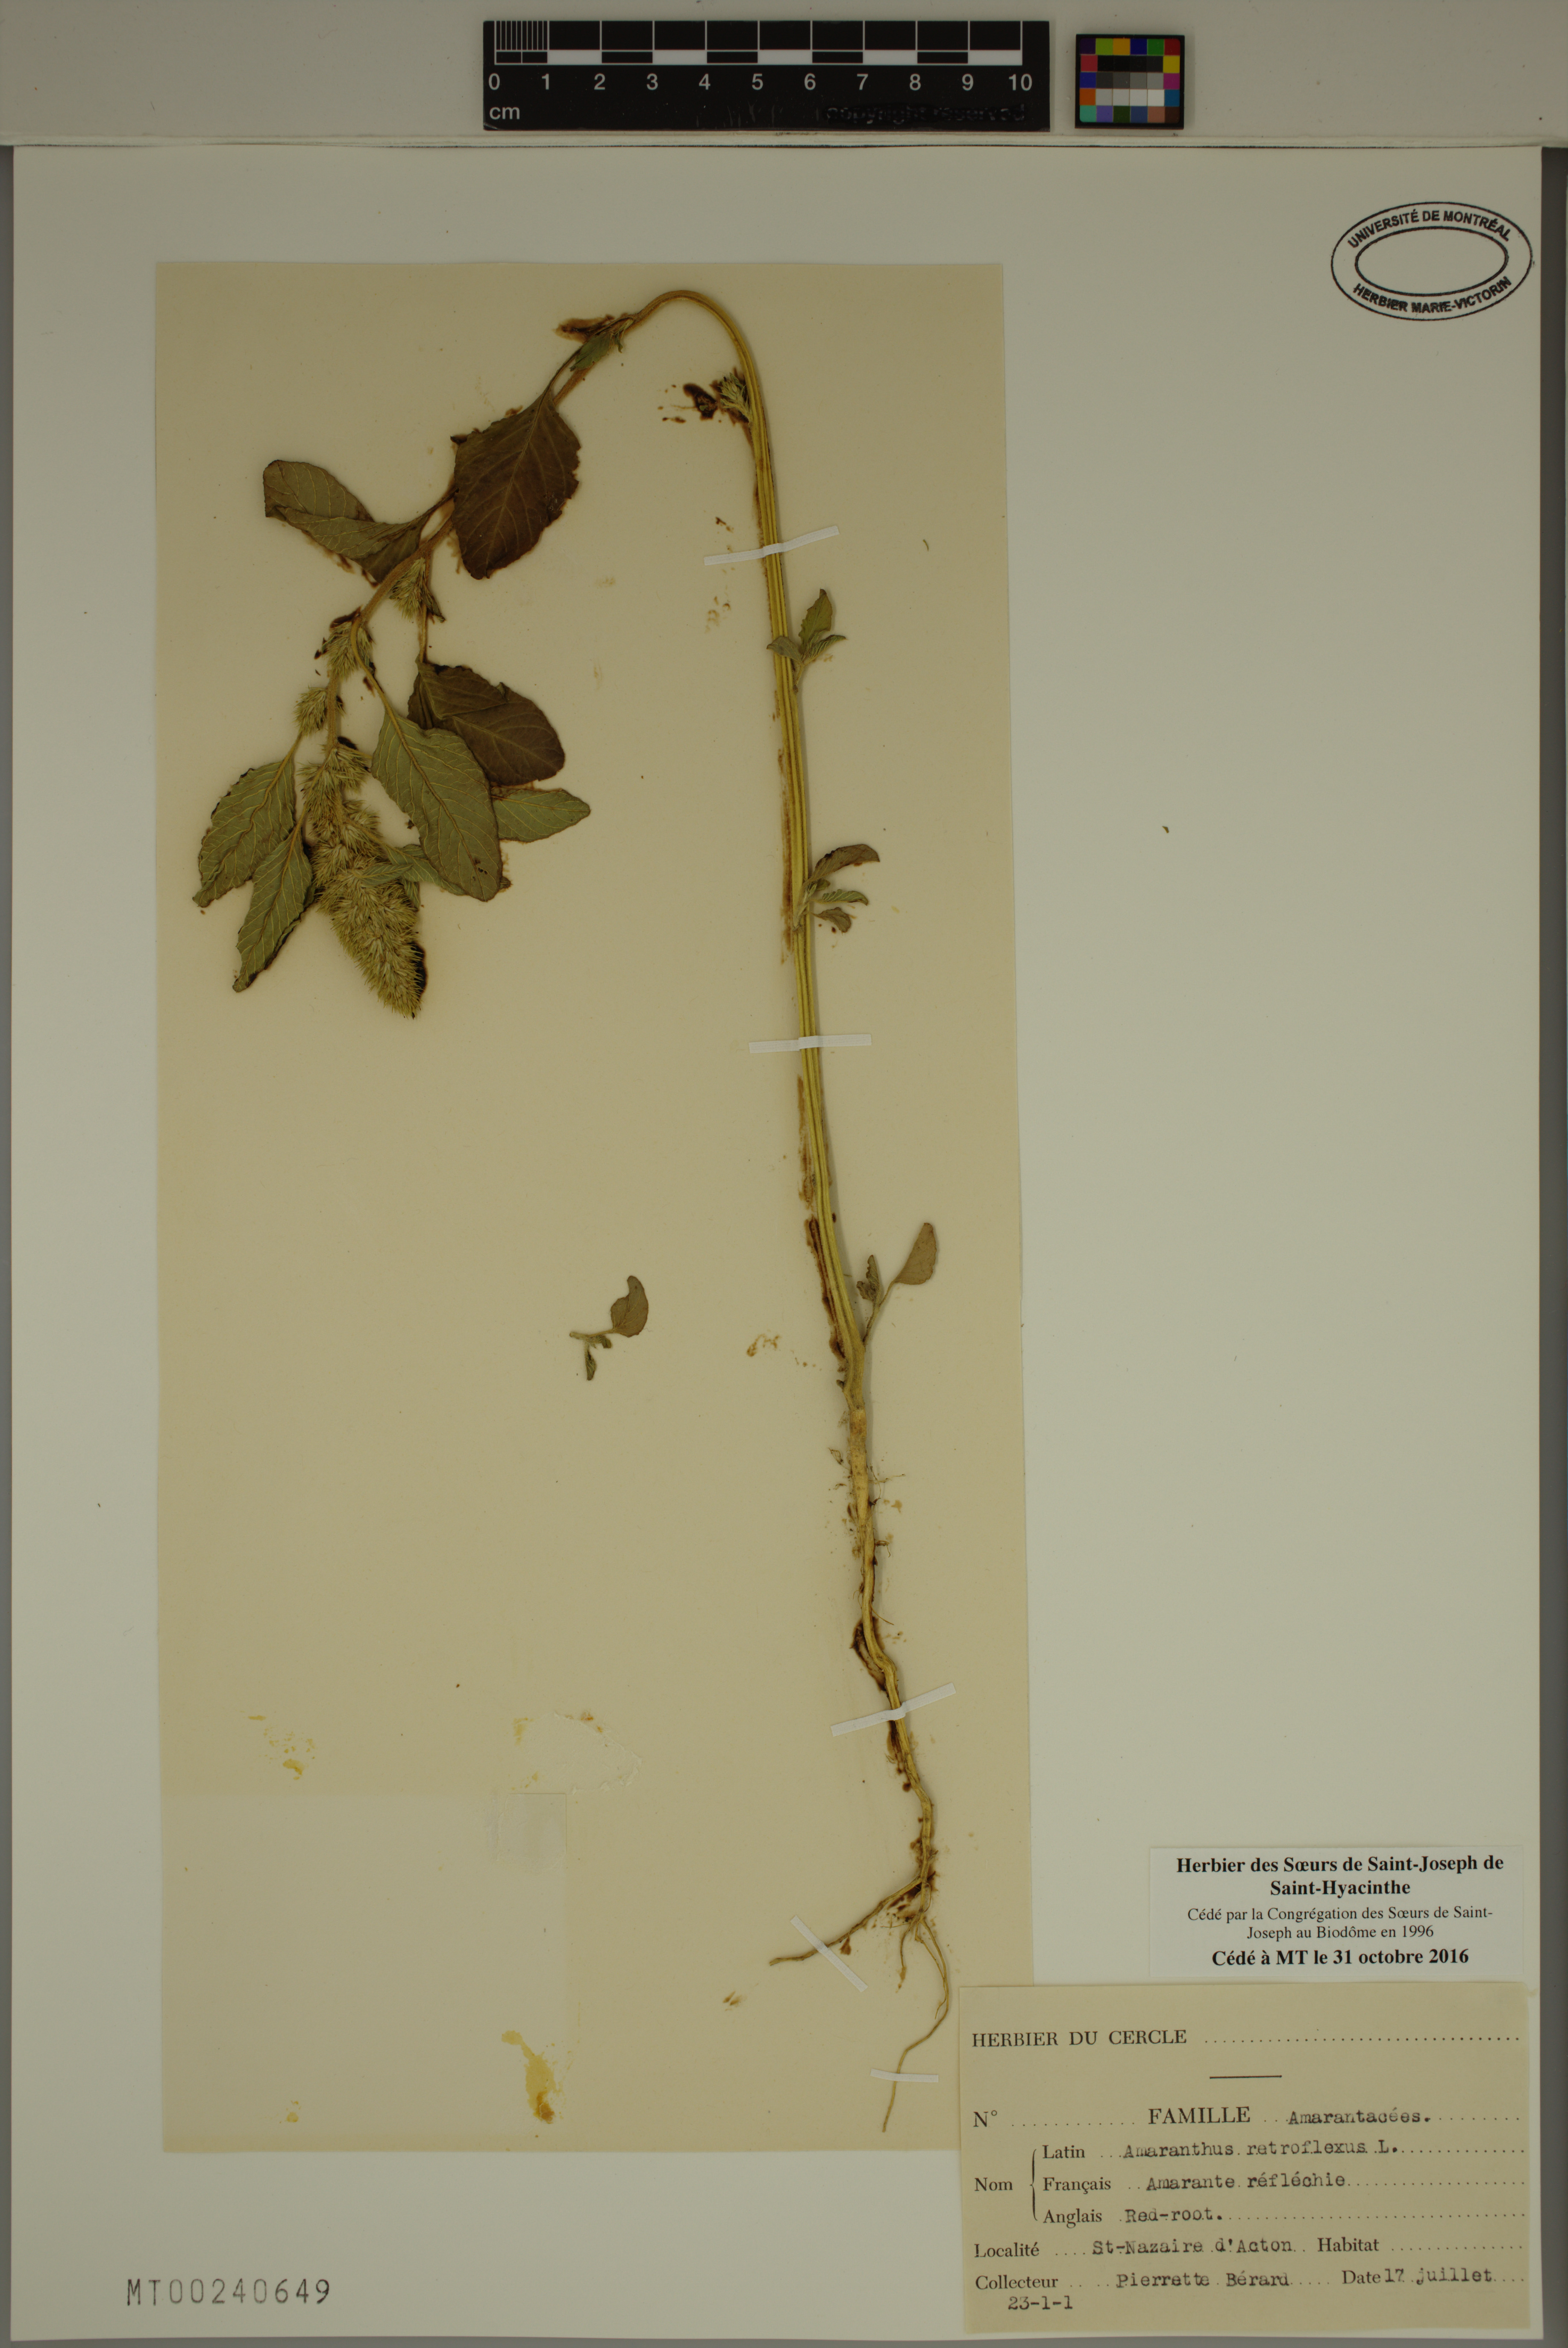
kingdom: Plantae
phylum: Tracheophyta
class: Magnoliopsida
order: Caryophyllales
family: Amaranthaceae
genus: Amaranthus
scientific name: Amaranthus retroflexus
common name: Redroot amaranth
